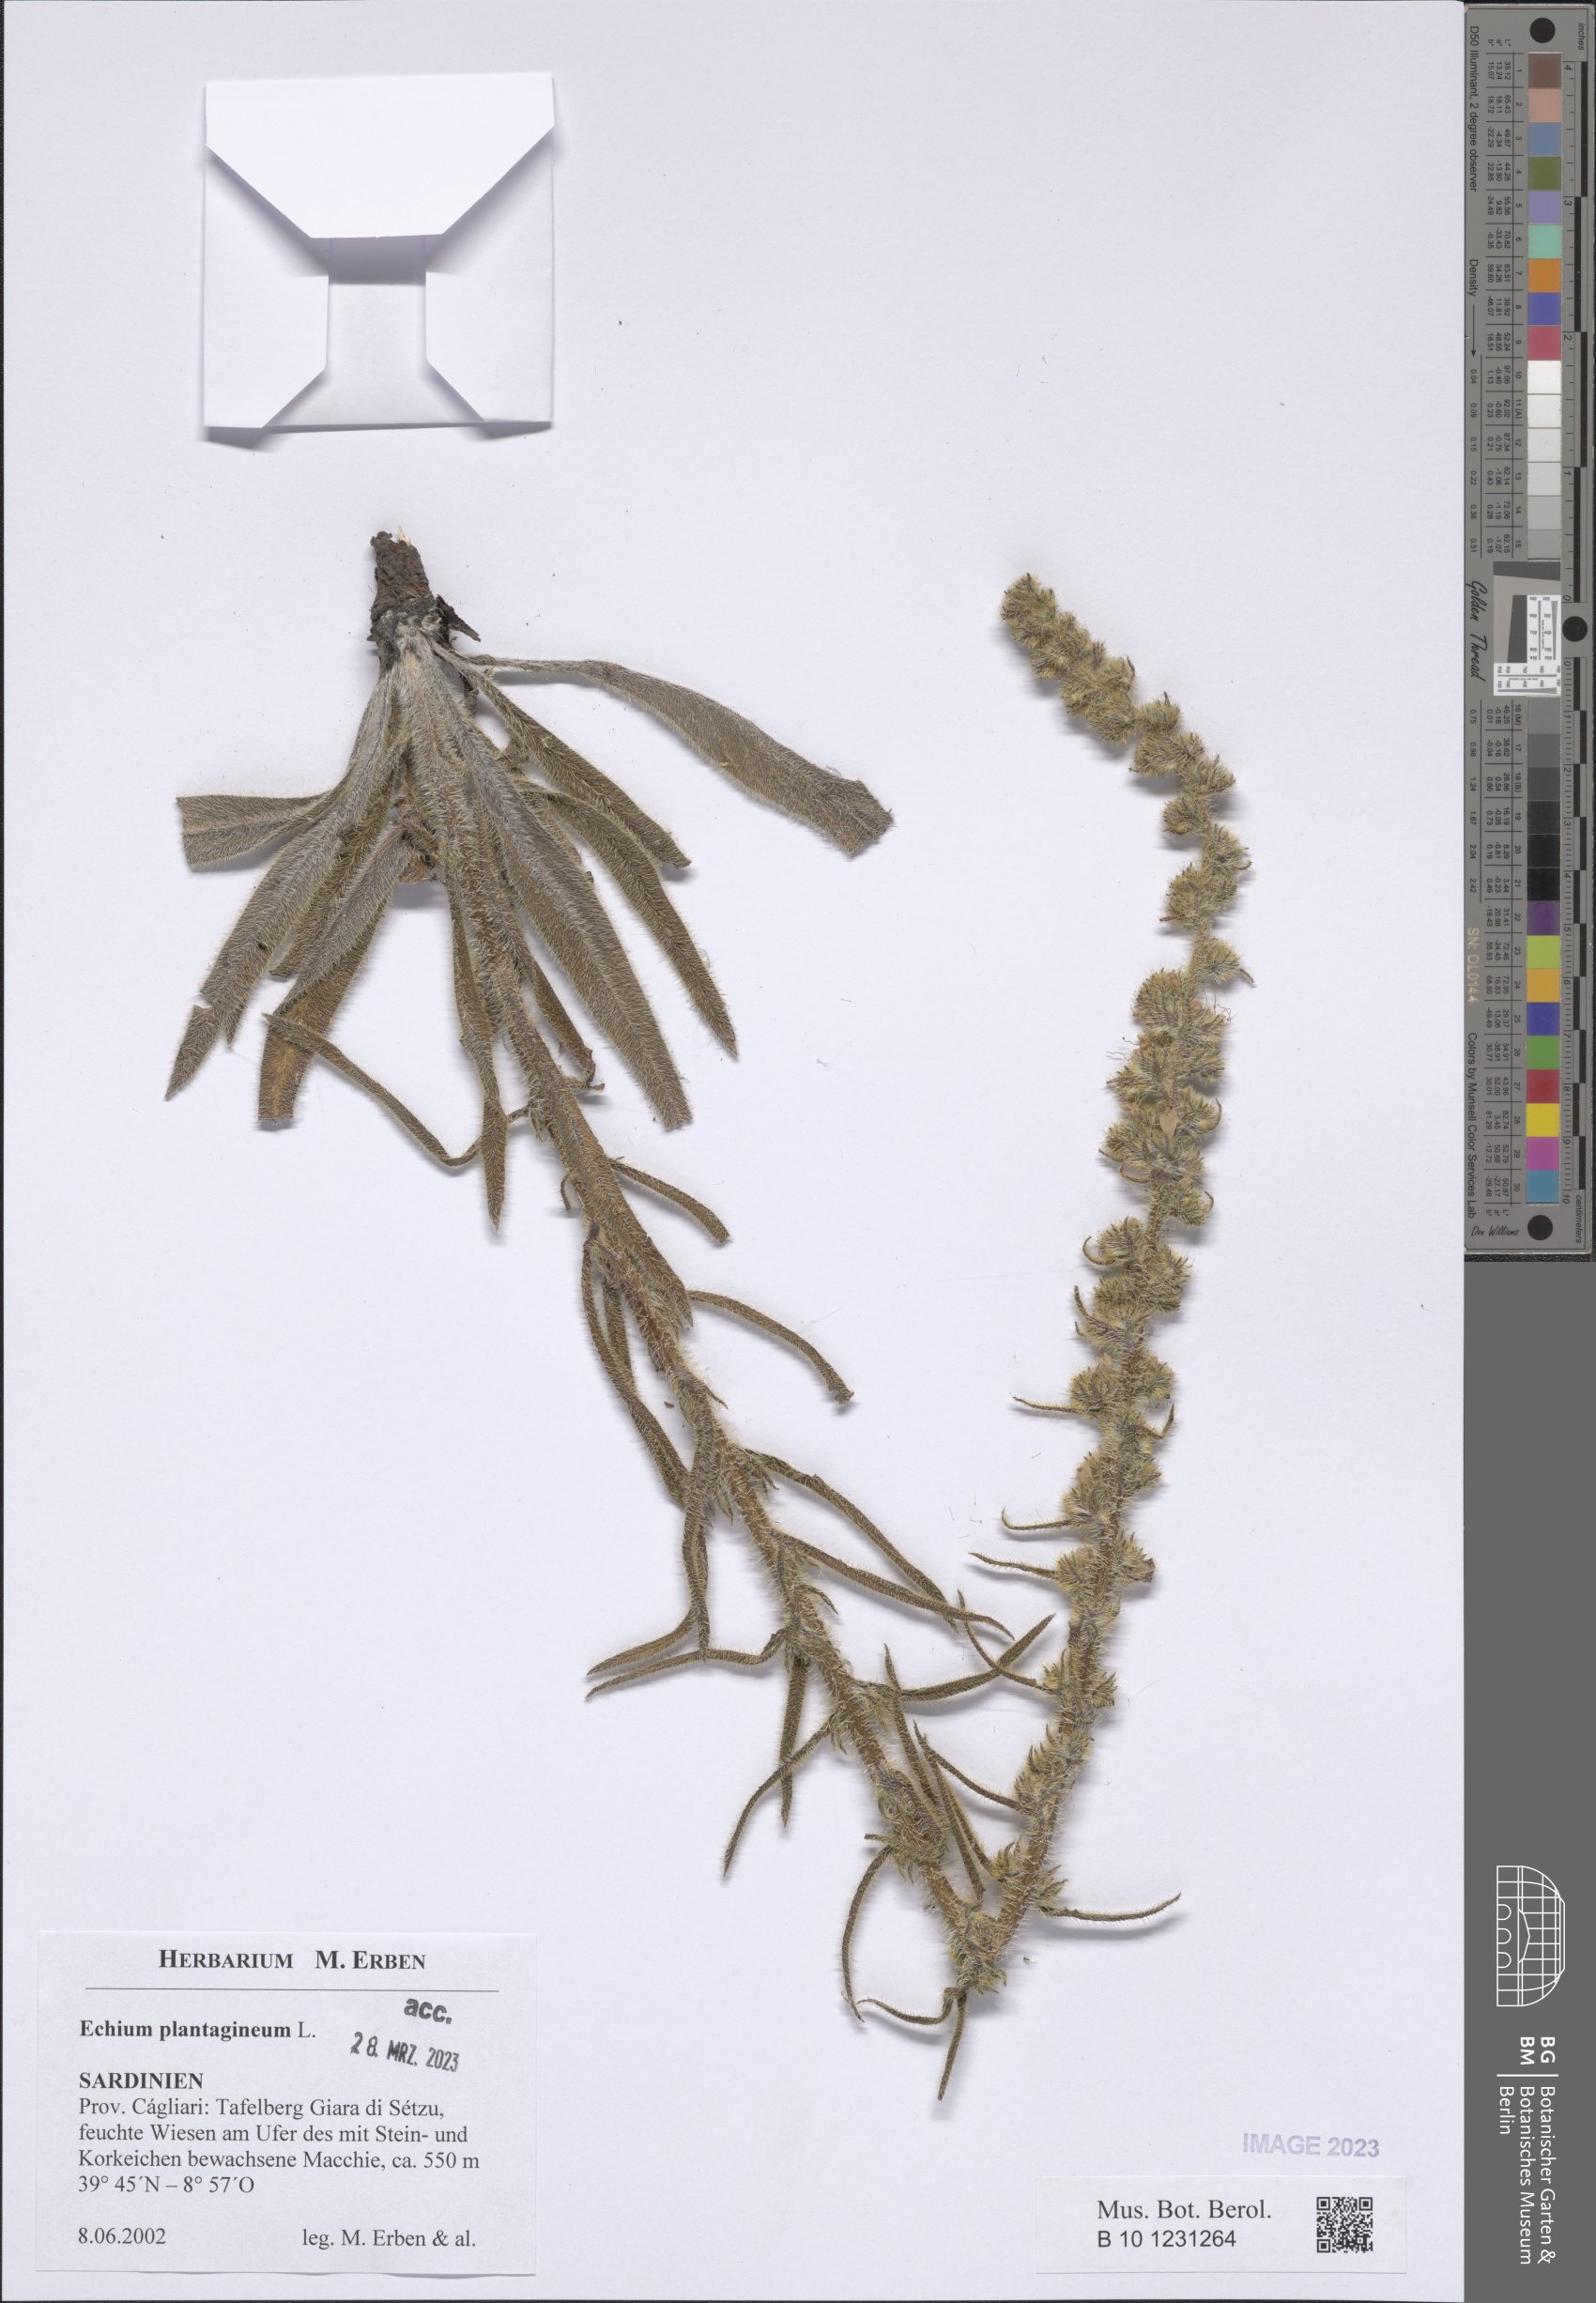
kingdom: Plantae
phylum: Tracheophyta
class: Magnoliopsida
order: Boraginales
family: Boraginaceae
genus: Echium
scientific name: Echium plantagineum
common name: Purple viper's-bugloss
